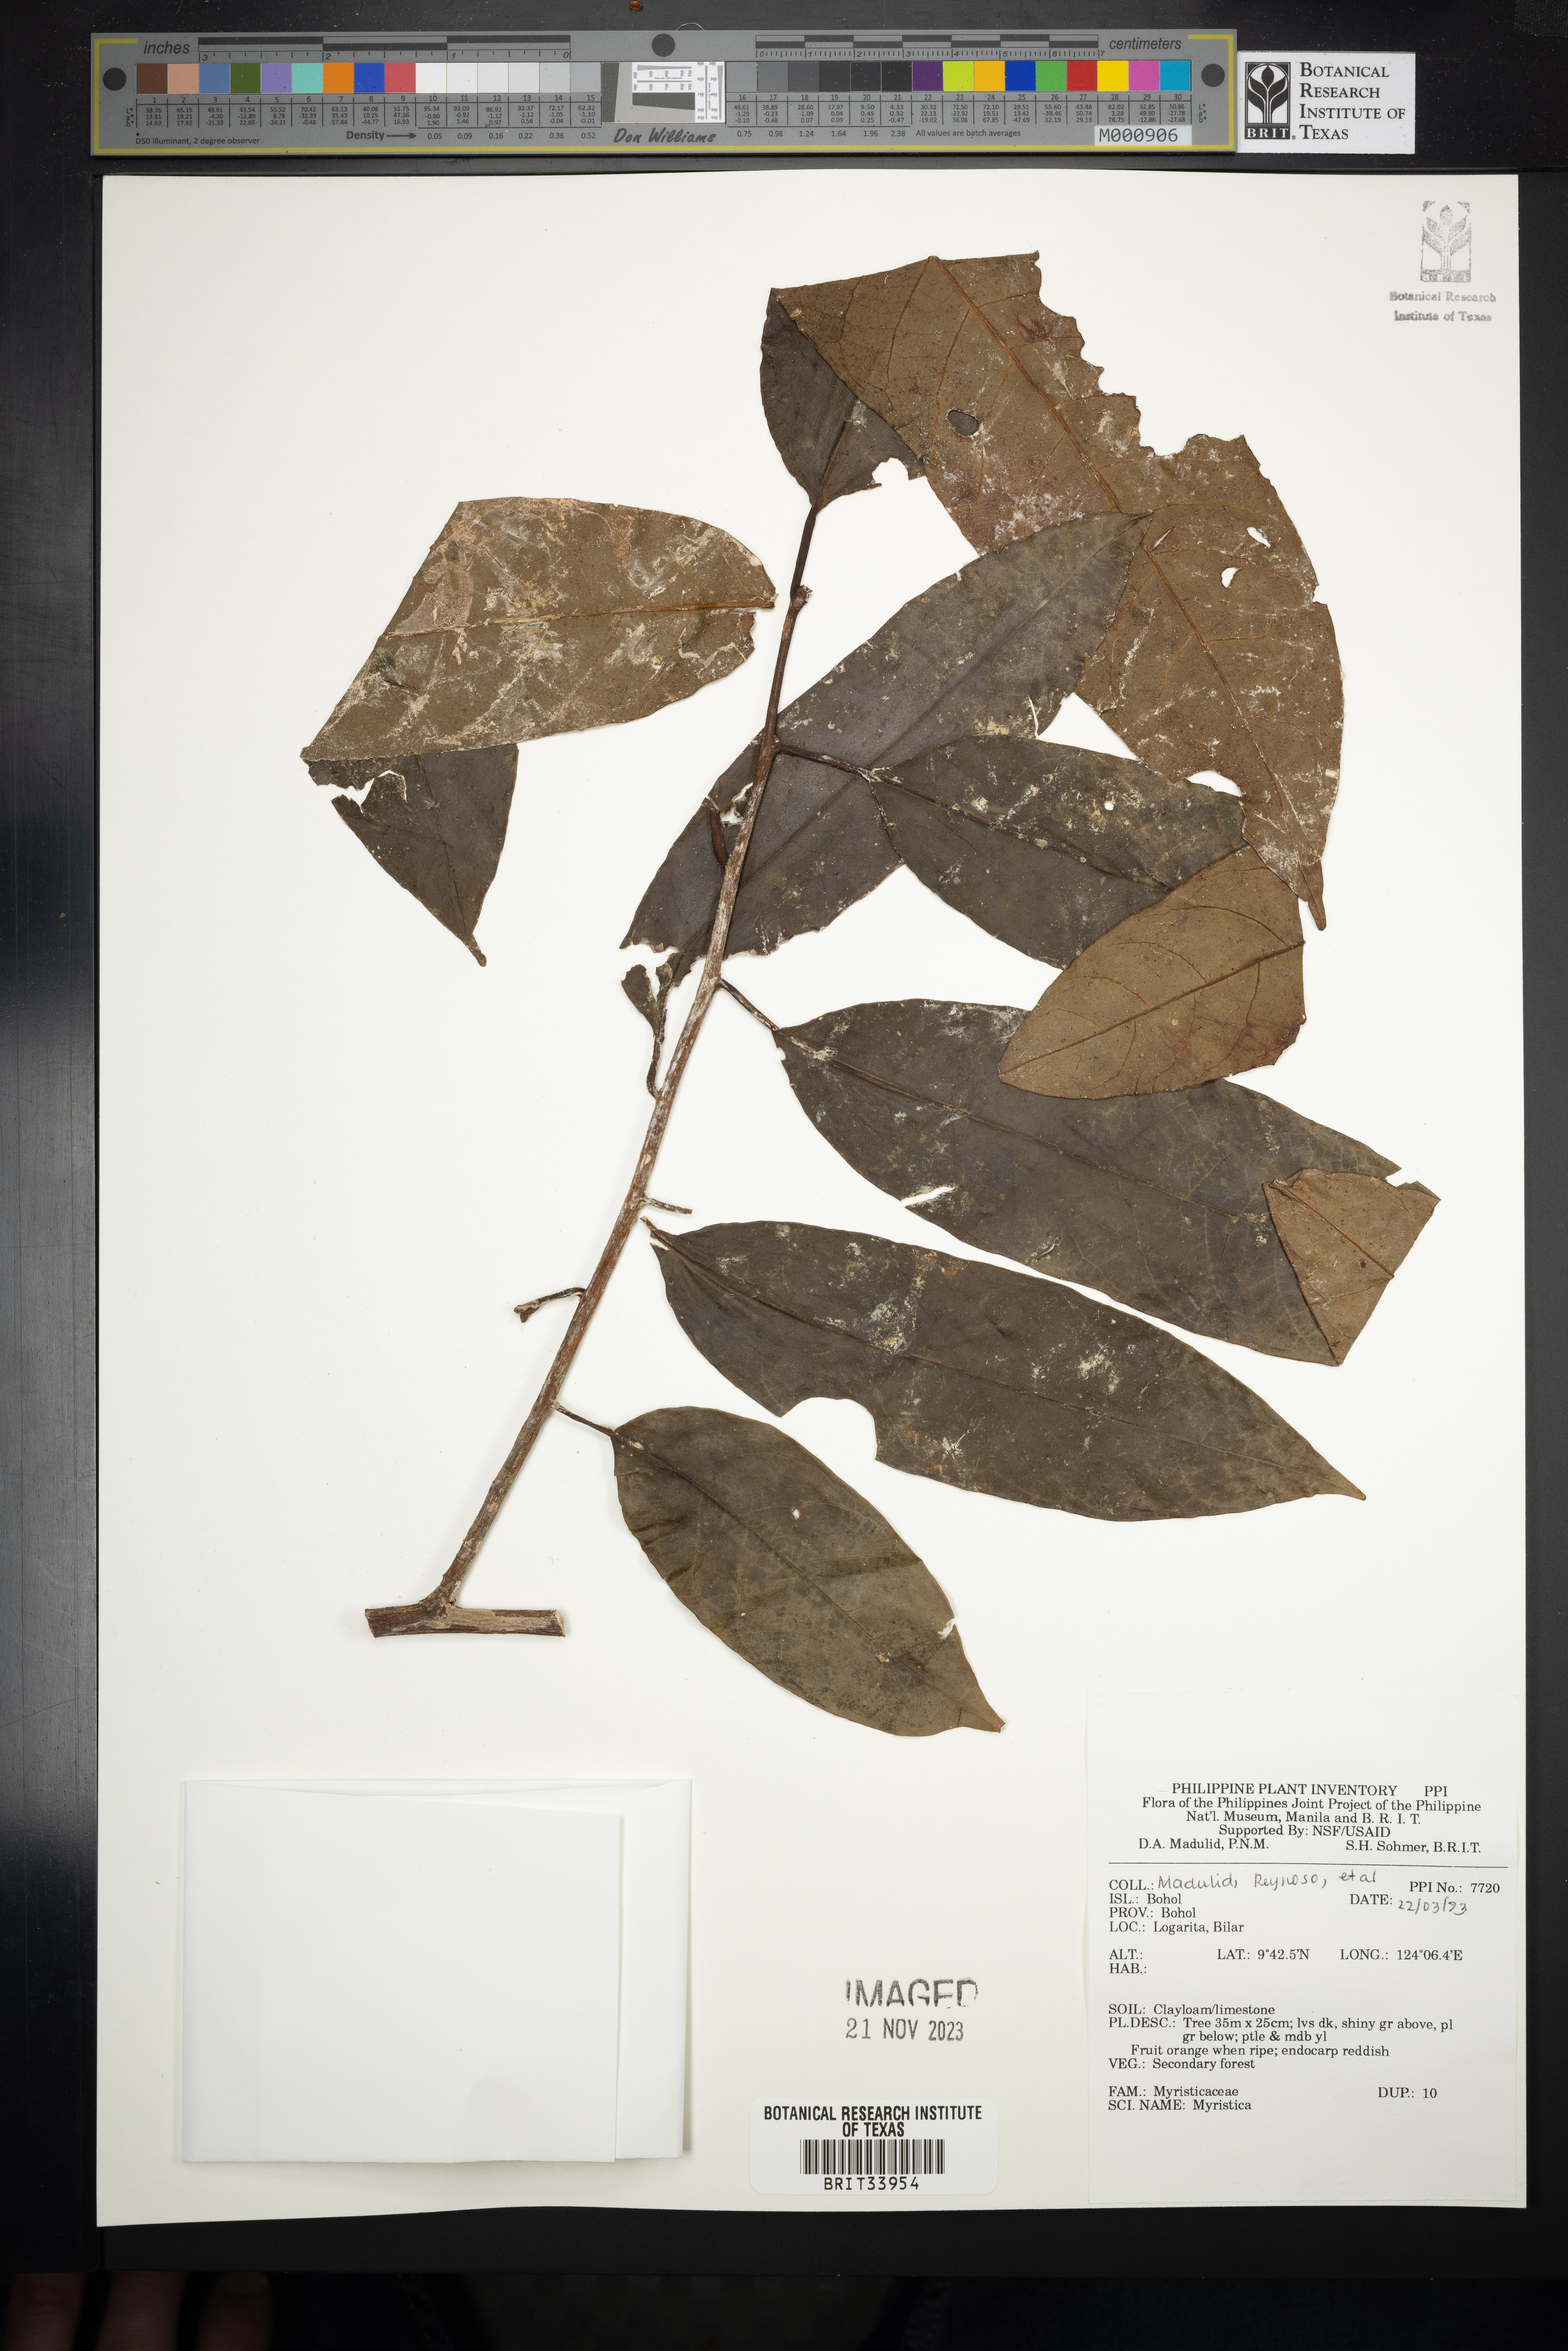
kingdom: Plantae
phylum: Tracheophyta
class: Magnoliopsida
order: Magnoliales
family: Myristicaceae
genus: Myristica
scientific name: Myristica
